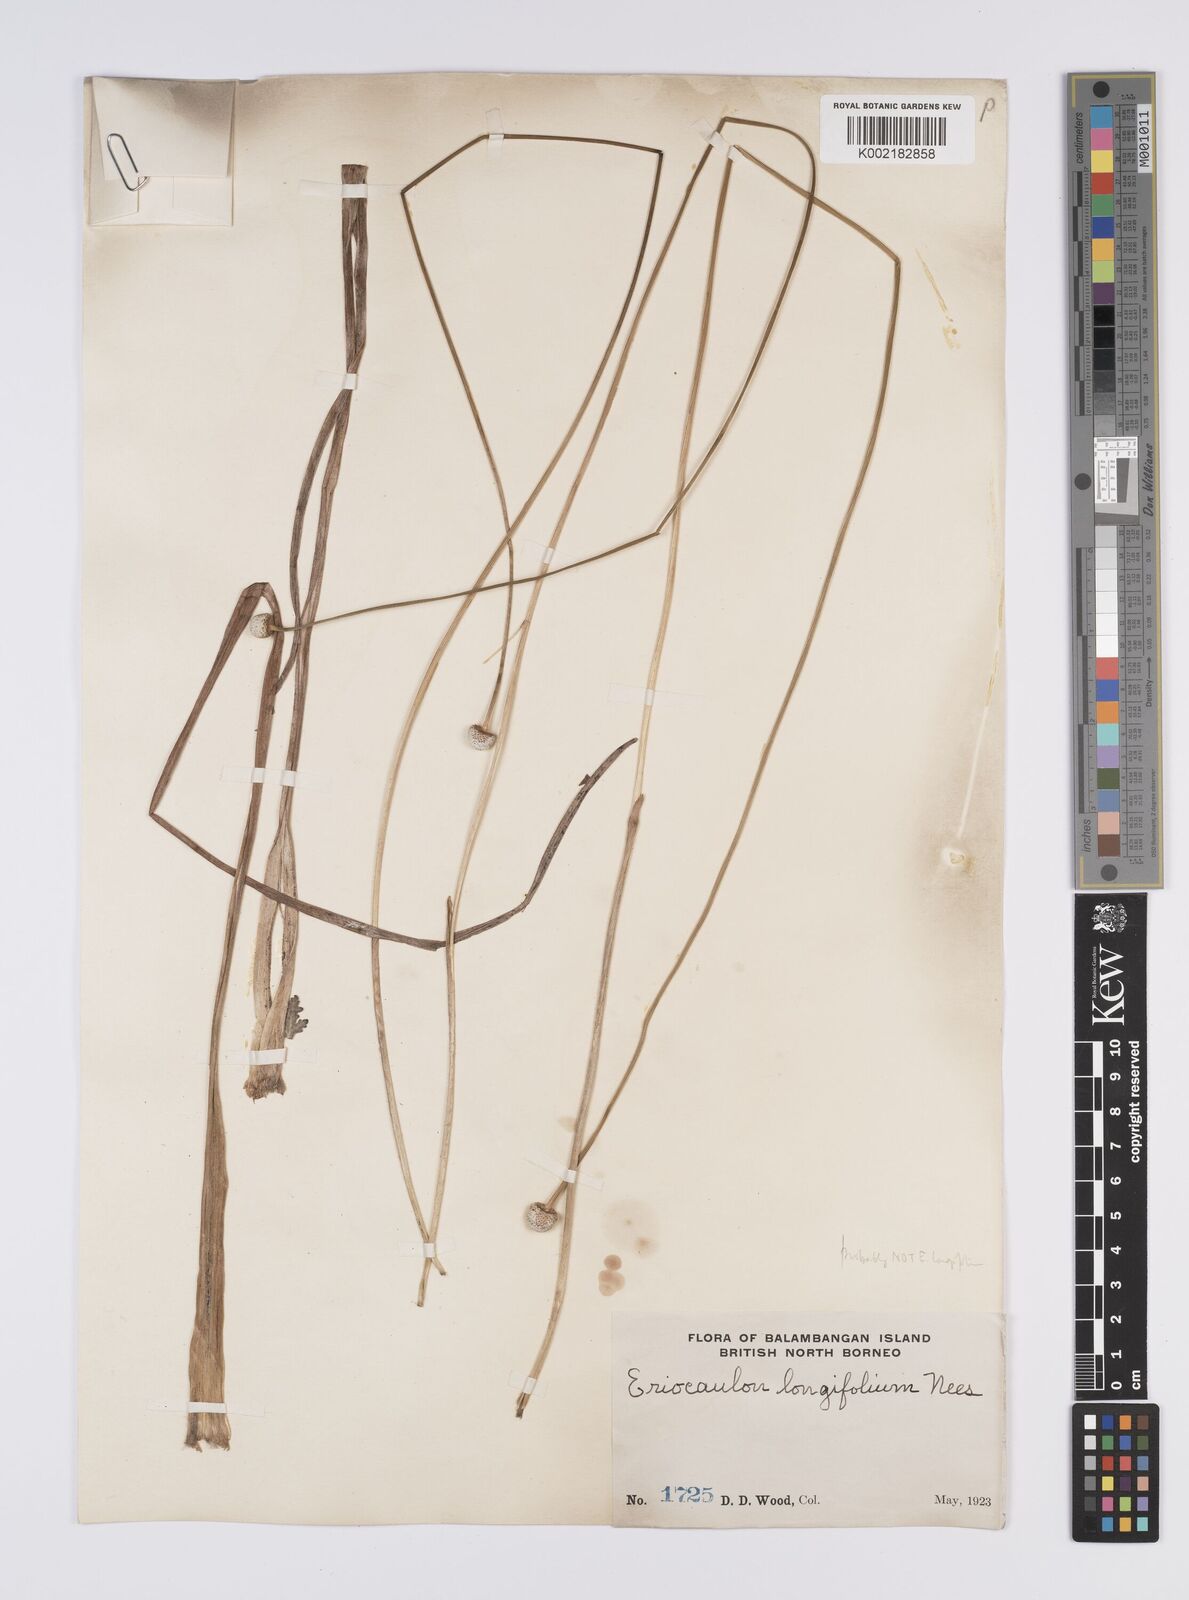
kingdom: Plantae
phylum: Tracheophyta
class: Liliopsida
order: Poales
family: Eriocaulaceae
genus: Eriocaulon
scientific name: Eriocaulon willdenovianum
